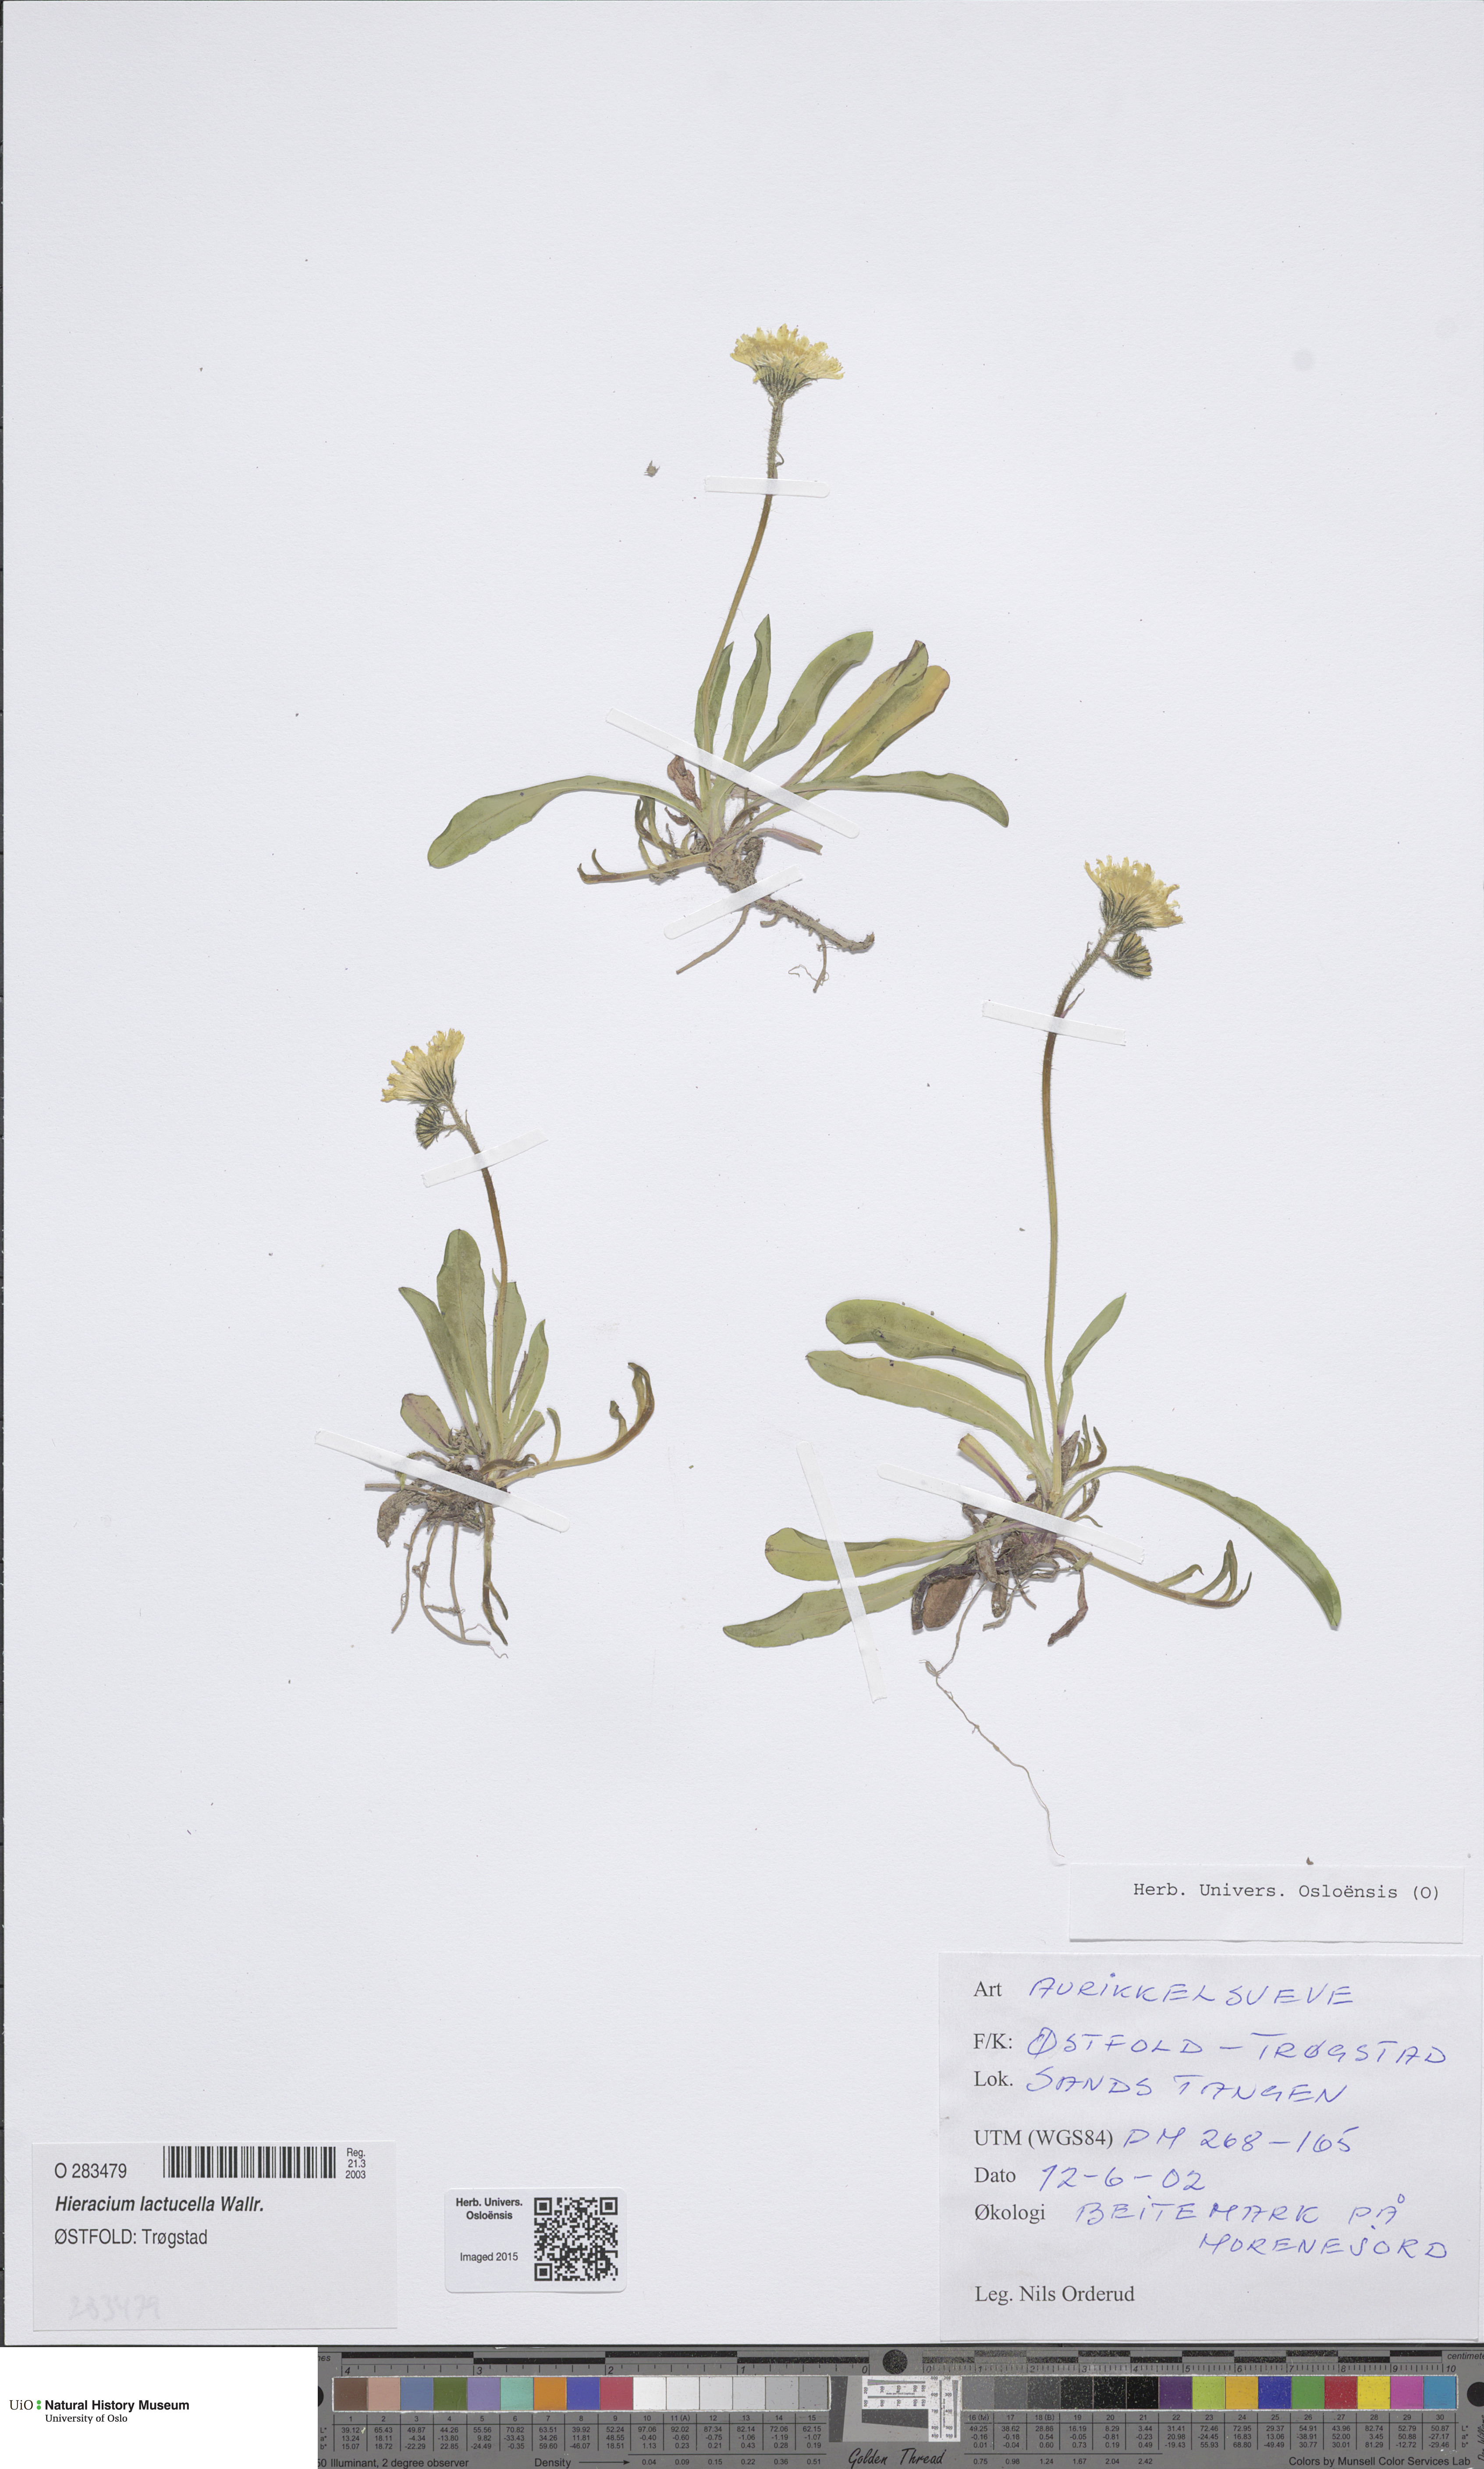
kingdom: Plantae
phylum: Tracheophyta
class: Magnoliopsida
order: Asterales
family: Asteraceae
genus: Pilosella
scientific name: Pilosella lactucella
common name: Glaucous fox-and-cubs
